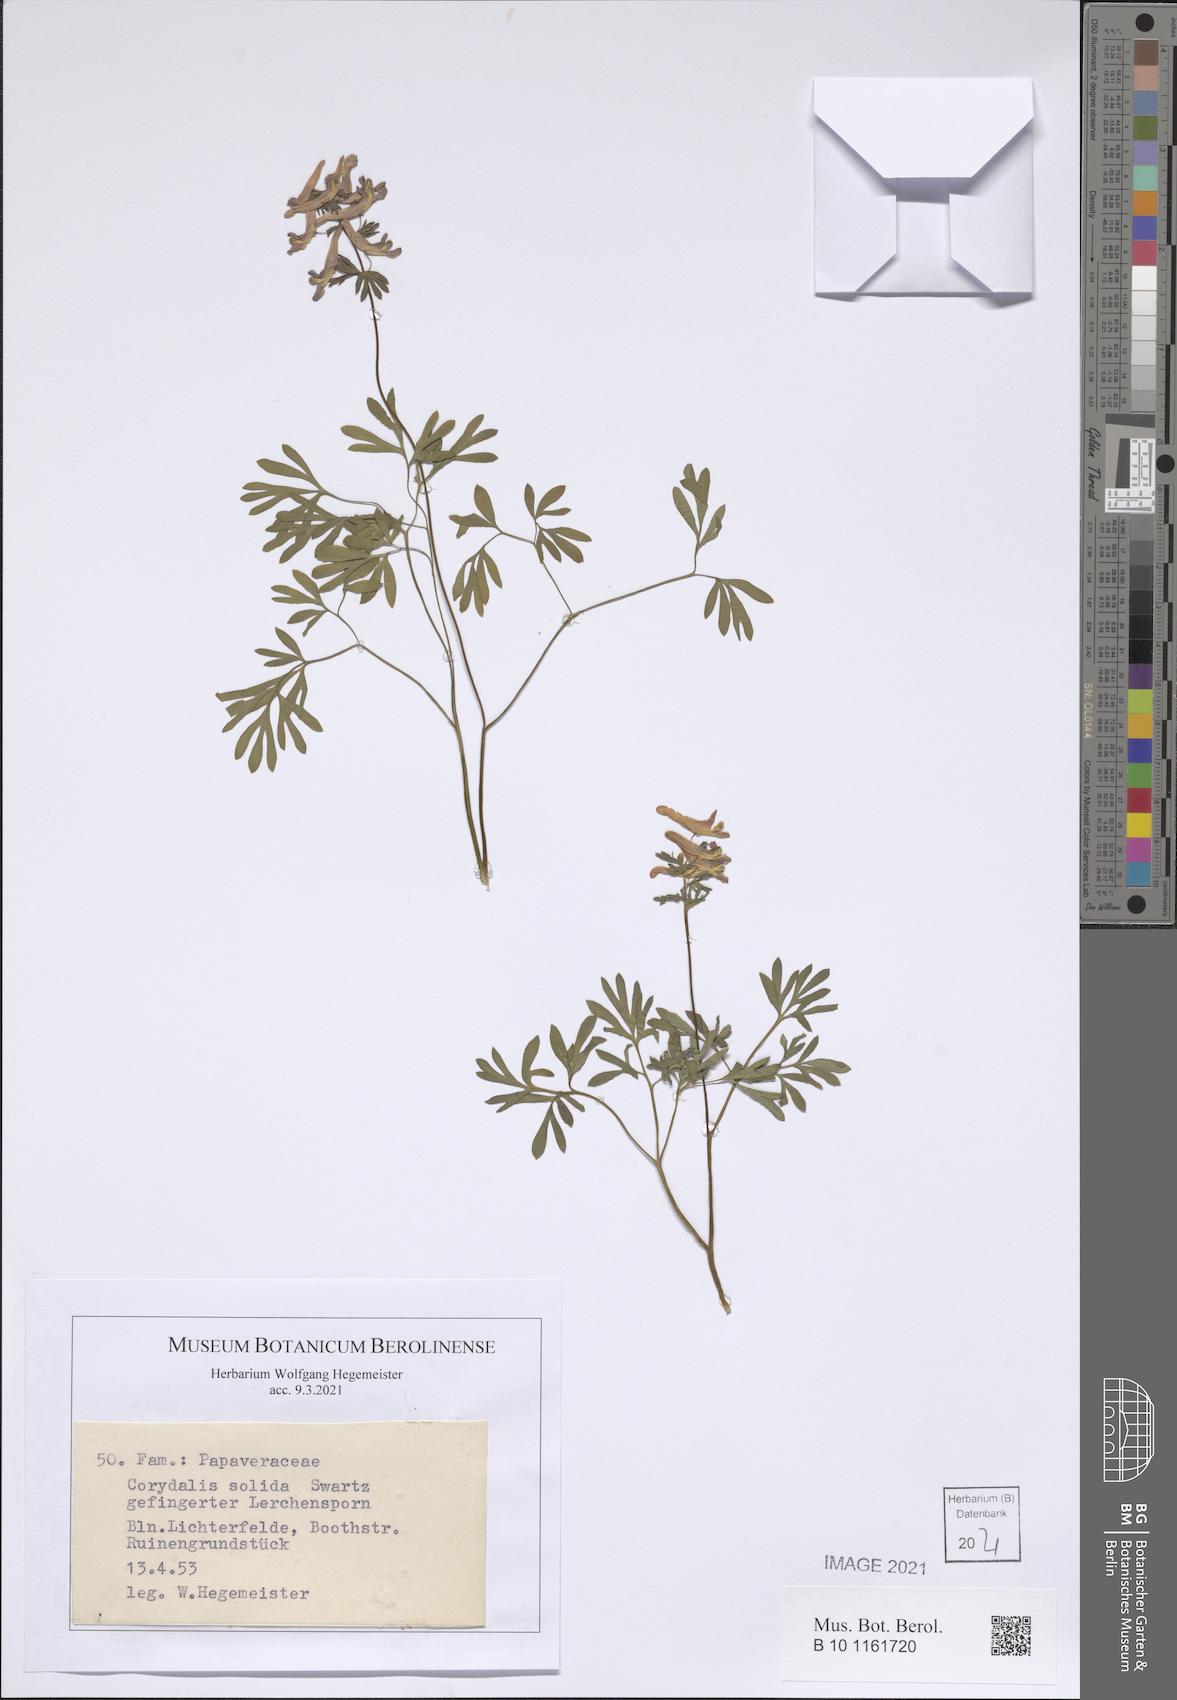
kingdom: Plantae
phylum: Tracheophyta
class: Magnoliopsida
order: Ranunculales
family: Papaveraceae
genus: Corydalis
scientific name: Corydalis solida
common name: Bird-in-a-bush
